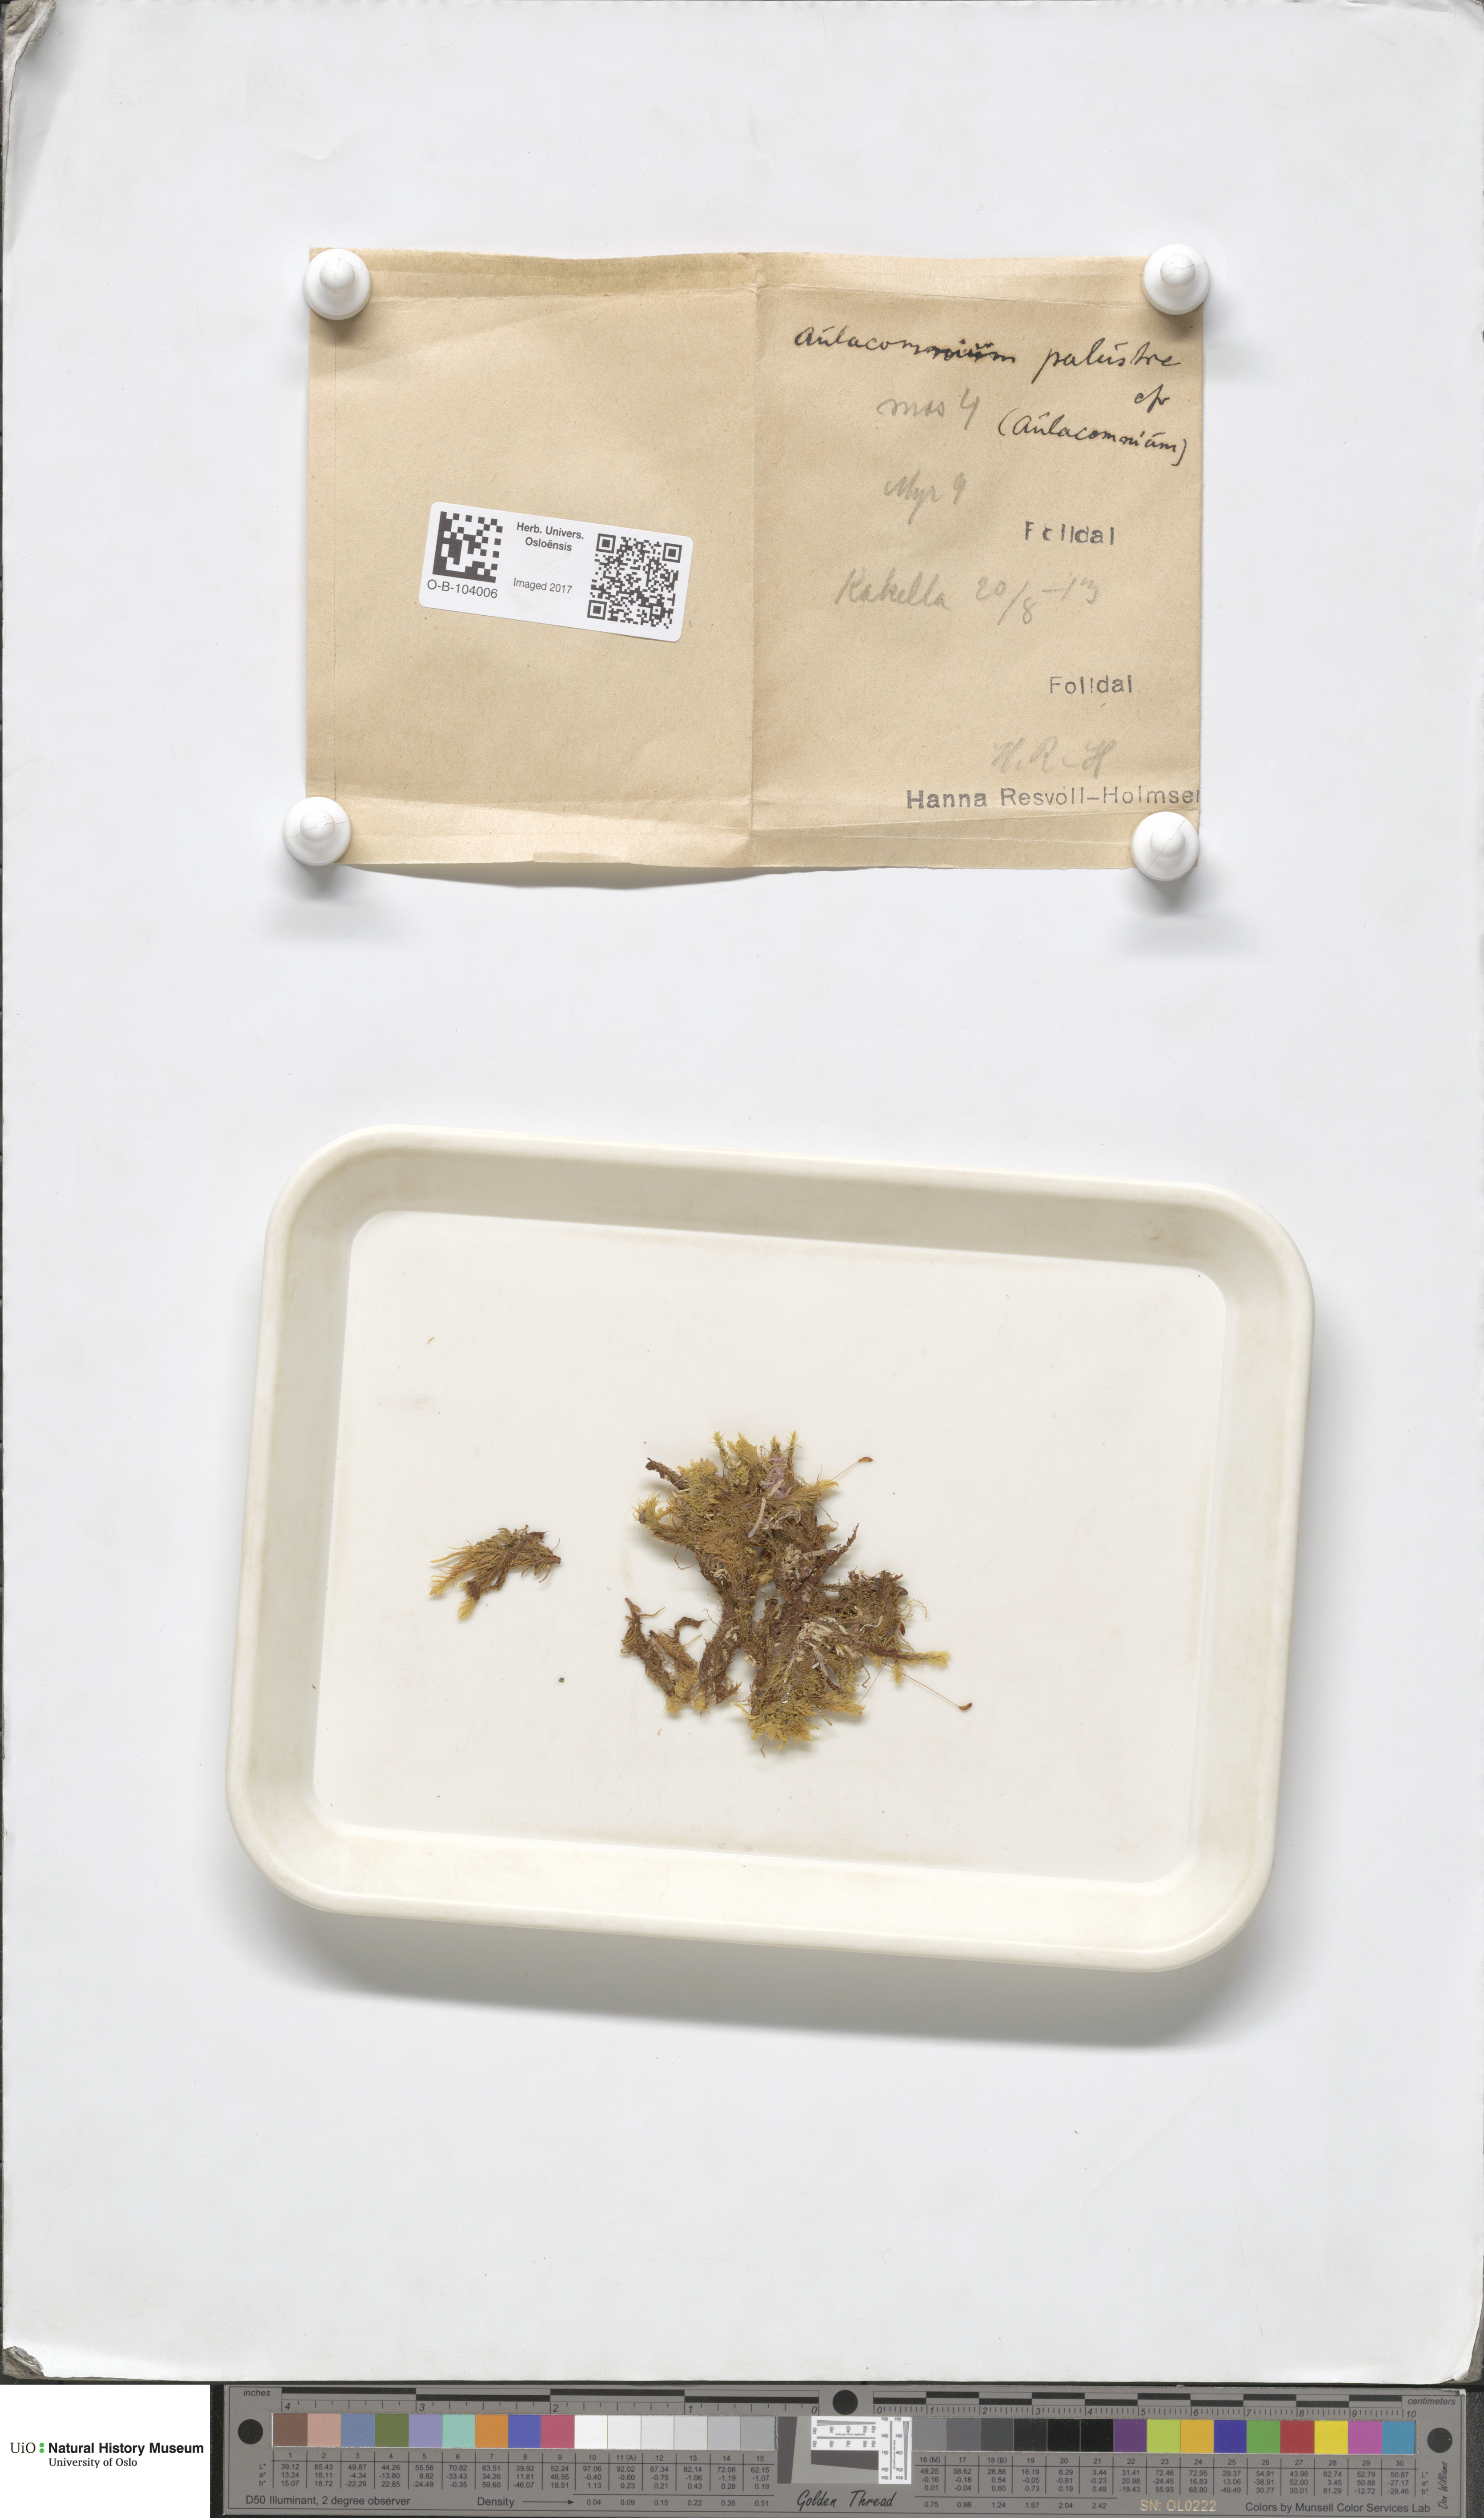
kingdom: Plantae
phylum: Bryophyta
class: Bryopsida
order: Aulacomniales
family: Aulacomniaceae
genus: Aulacomnium
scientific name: Aulacomnium palustre
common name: Bog groove-moss
